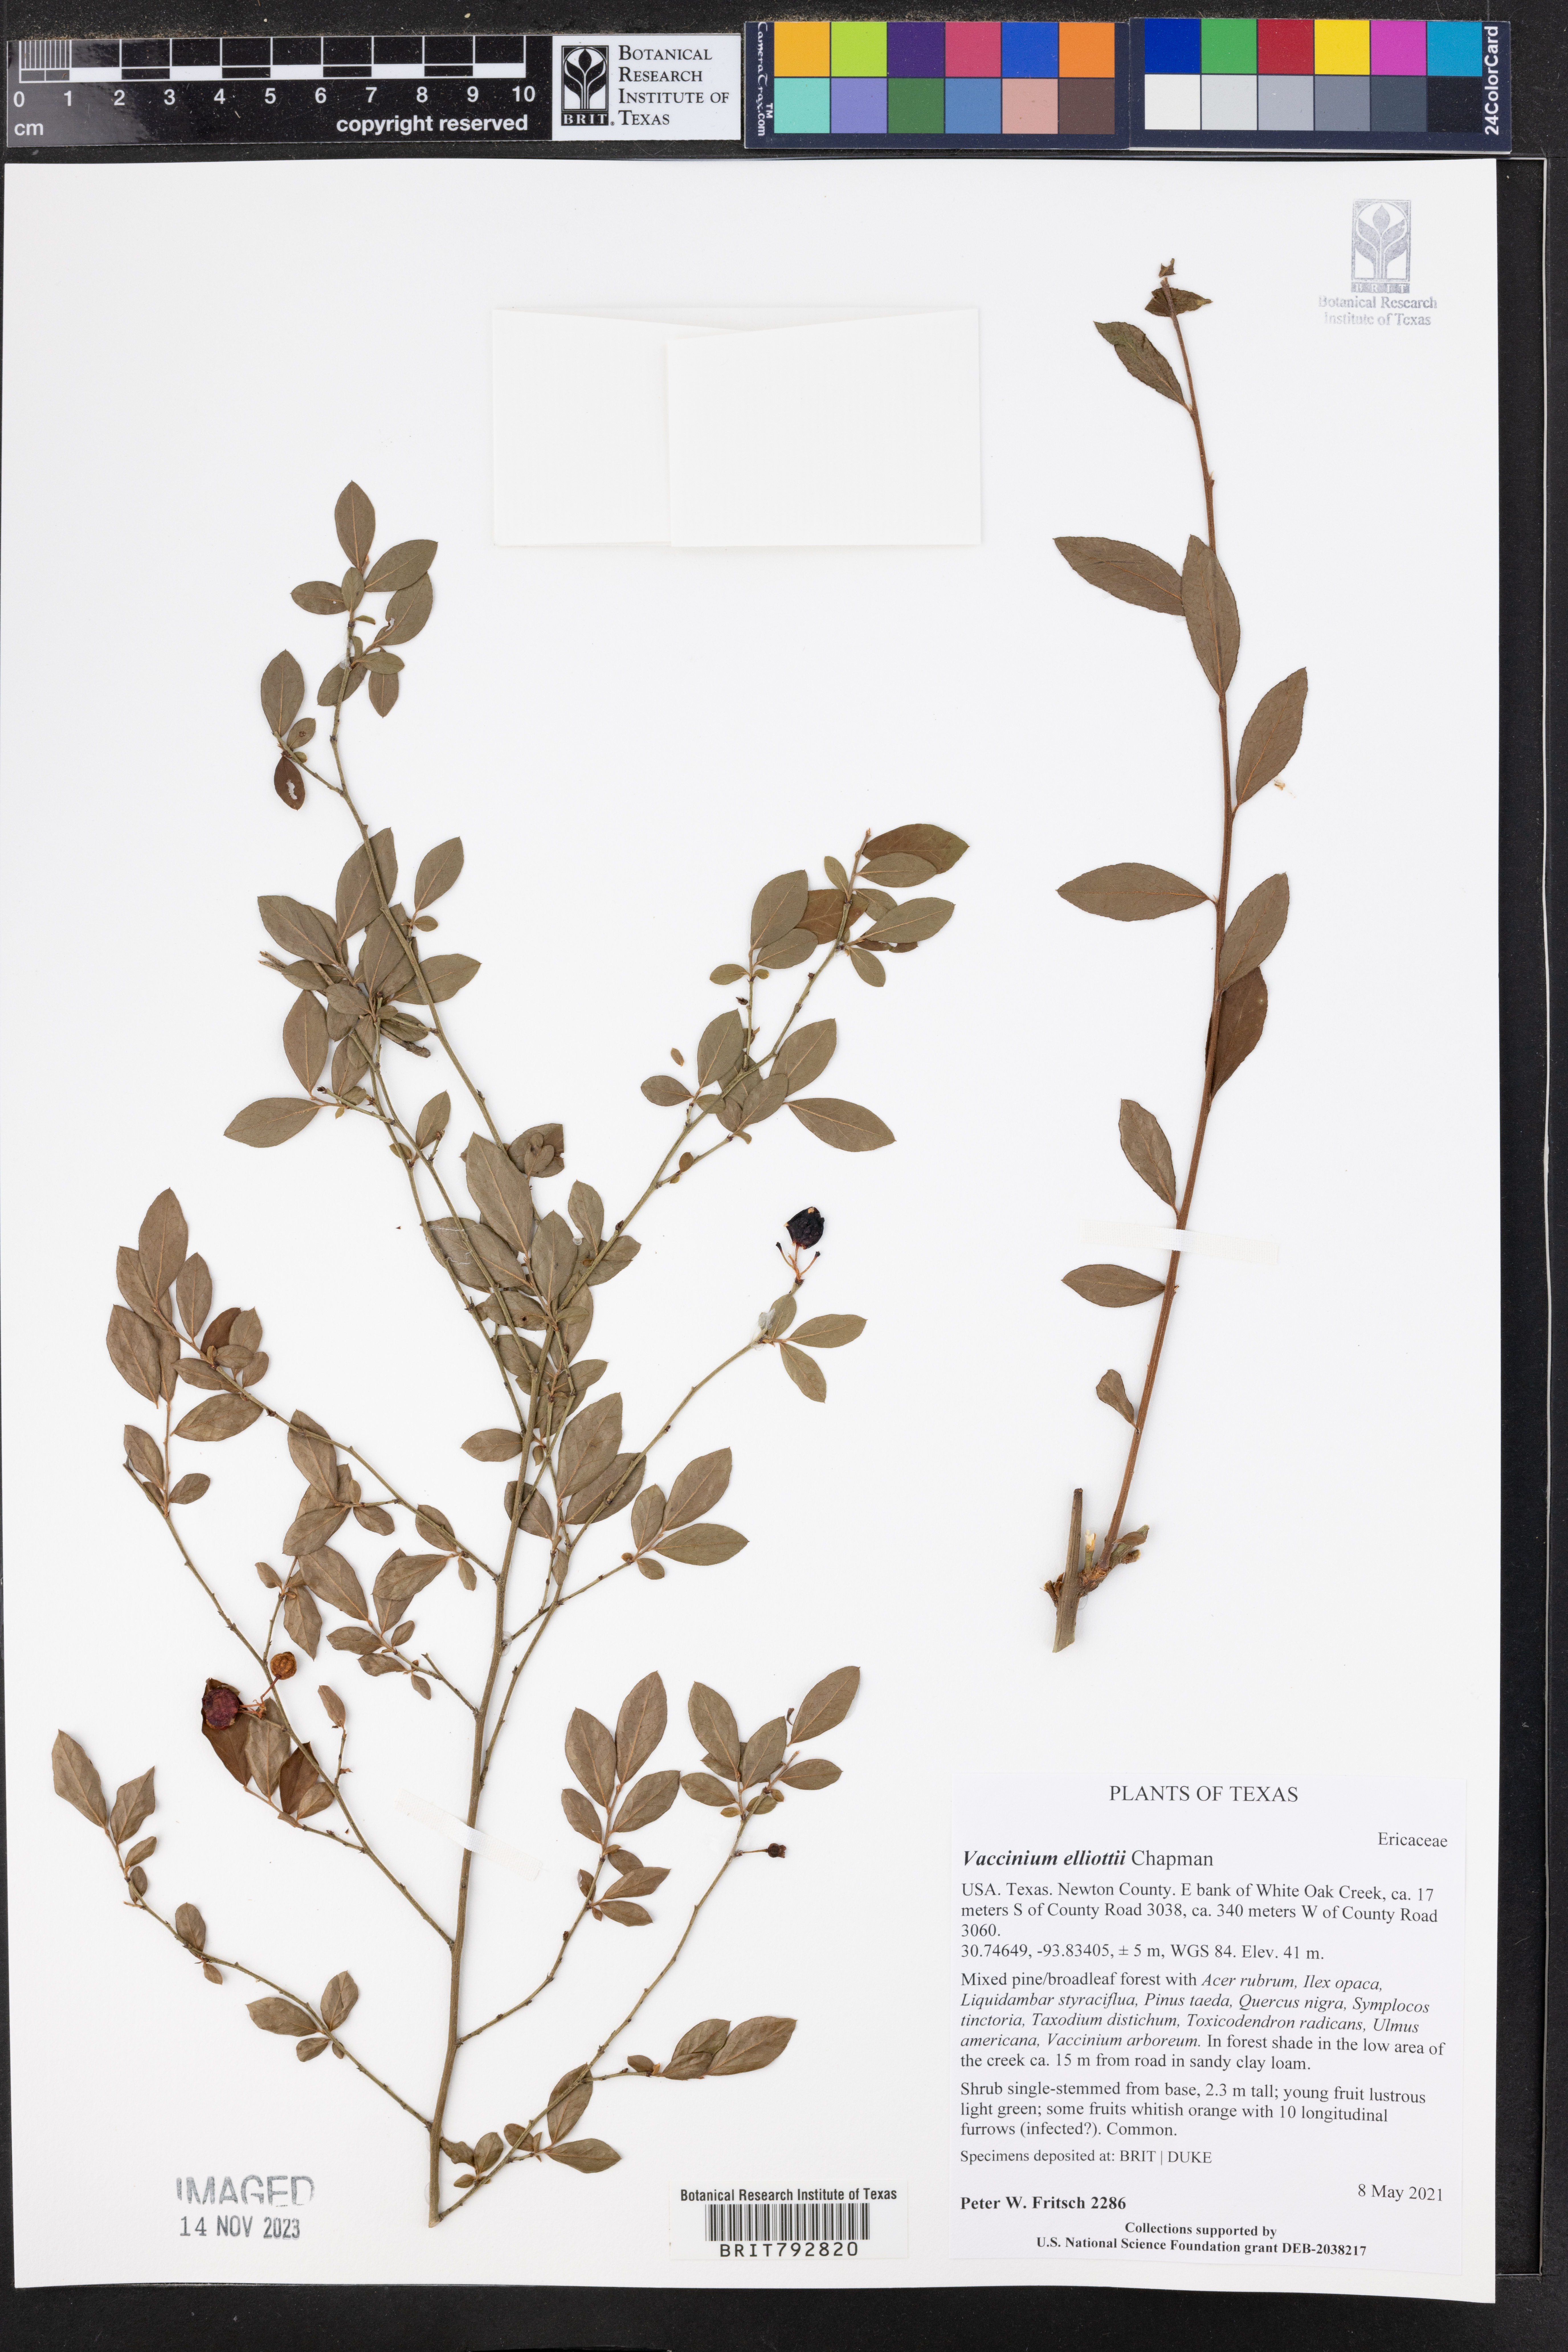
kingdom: Plantae
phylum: Tracheophyta
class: Magnoliopsida
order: Ericales
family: Ericaceae
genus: Vaccinium
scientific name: Vaccinium corymbosum
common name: Blueberry
